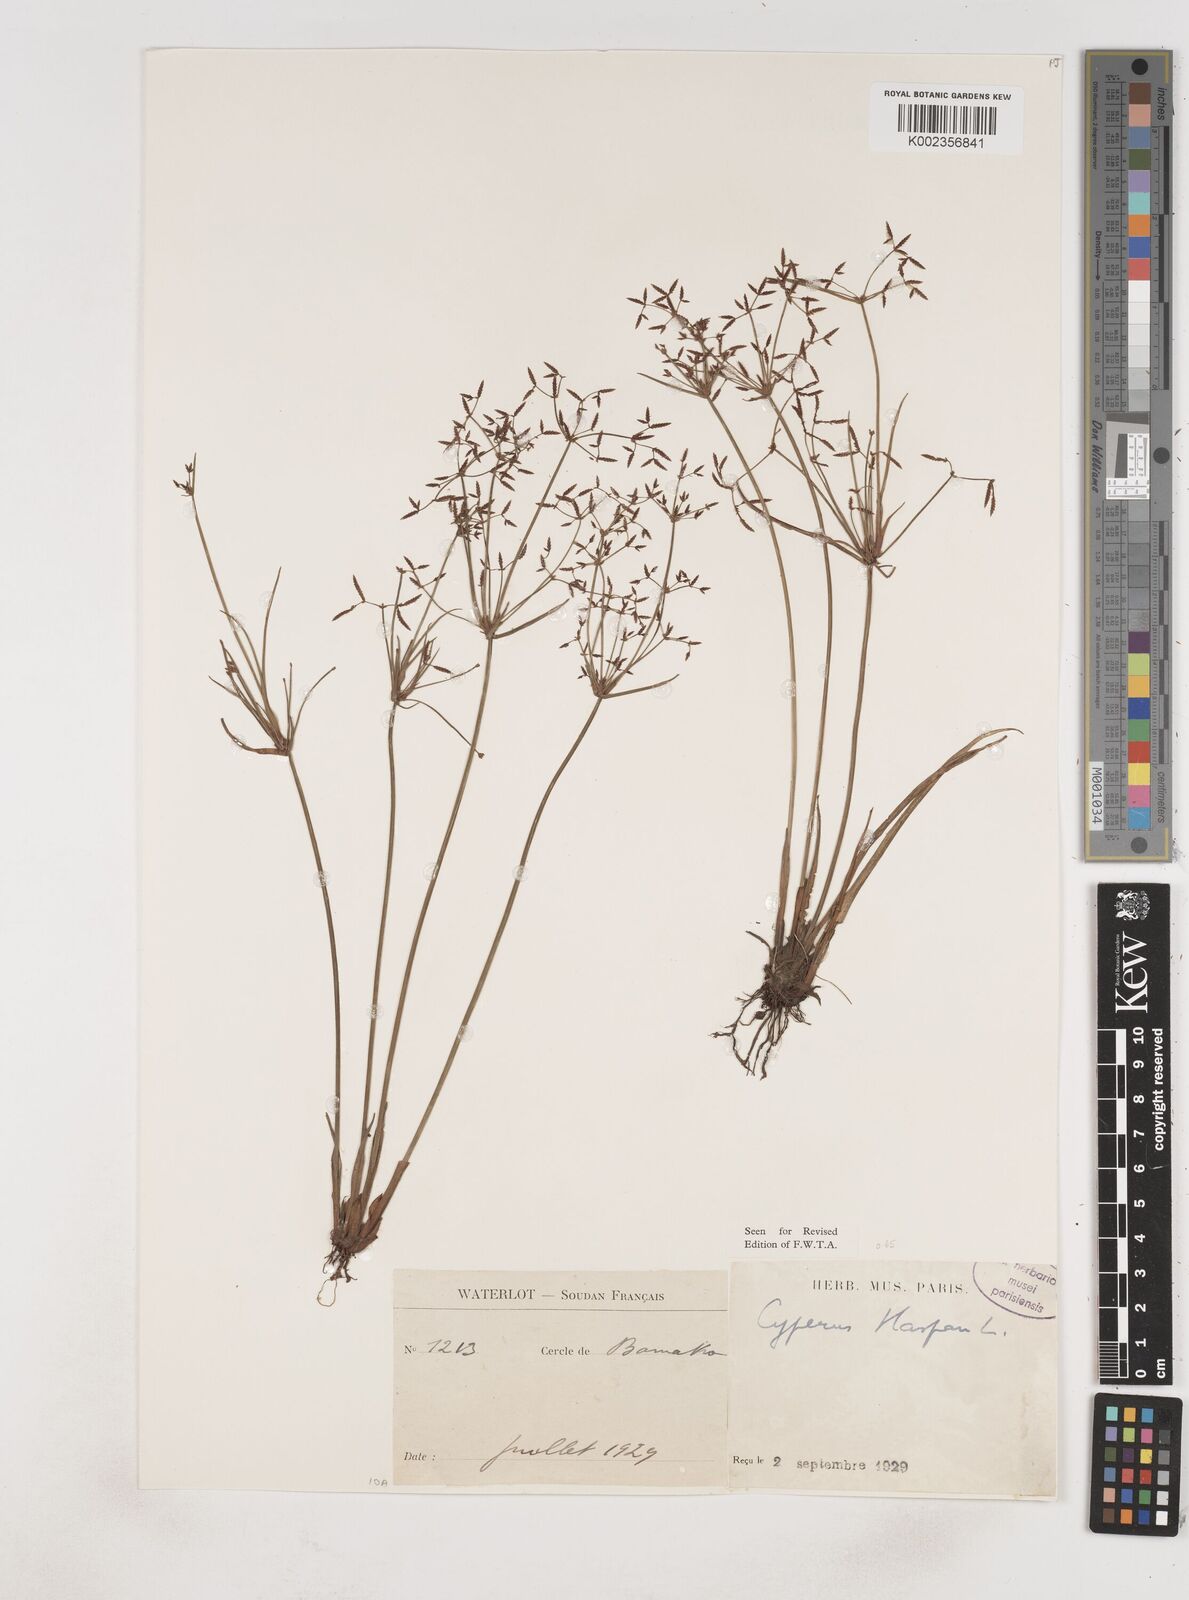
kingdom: Plantae
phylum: Tracheophyta
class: Liliopsida
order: Poales
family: Cyperaceae
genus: Cyperus
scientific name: Cyperus haspan
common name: Haspan flatsedge
